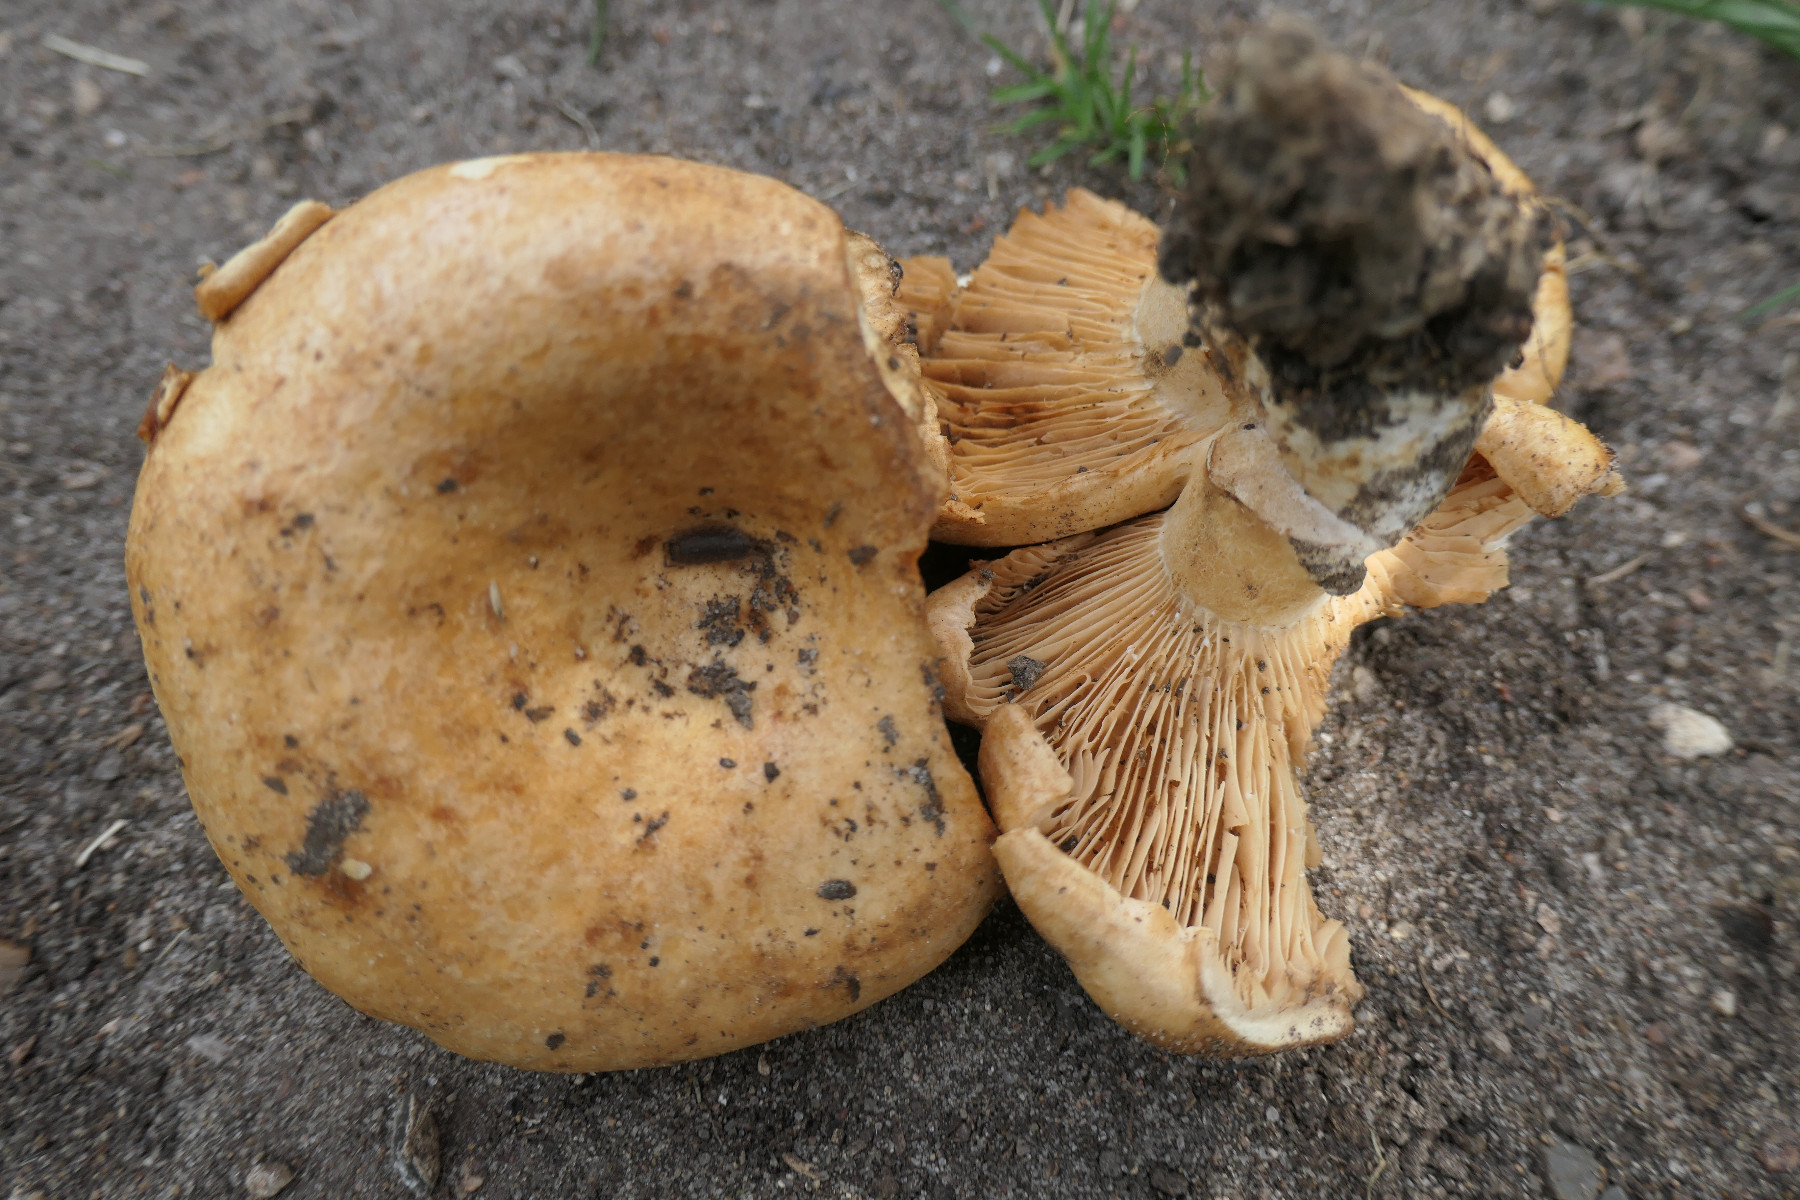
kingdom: Fungi
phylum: Basidiomycota
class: Agaricomycetes
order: Russulales
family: Russulaceae
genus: Lactarius
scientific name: Lactarius acerrimus
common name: brændende mælkehat
